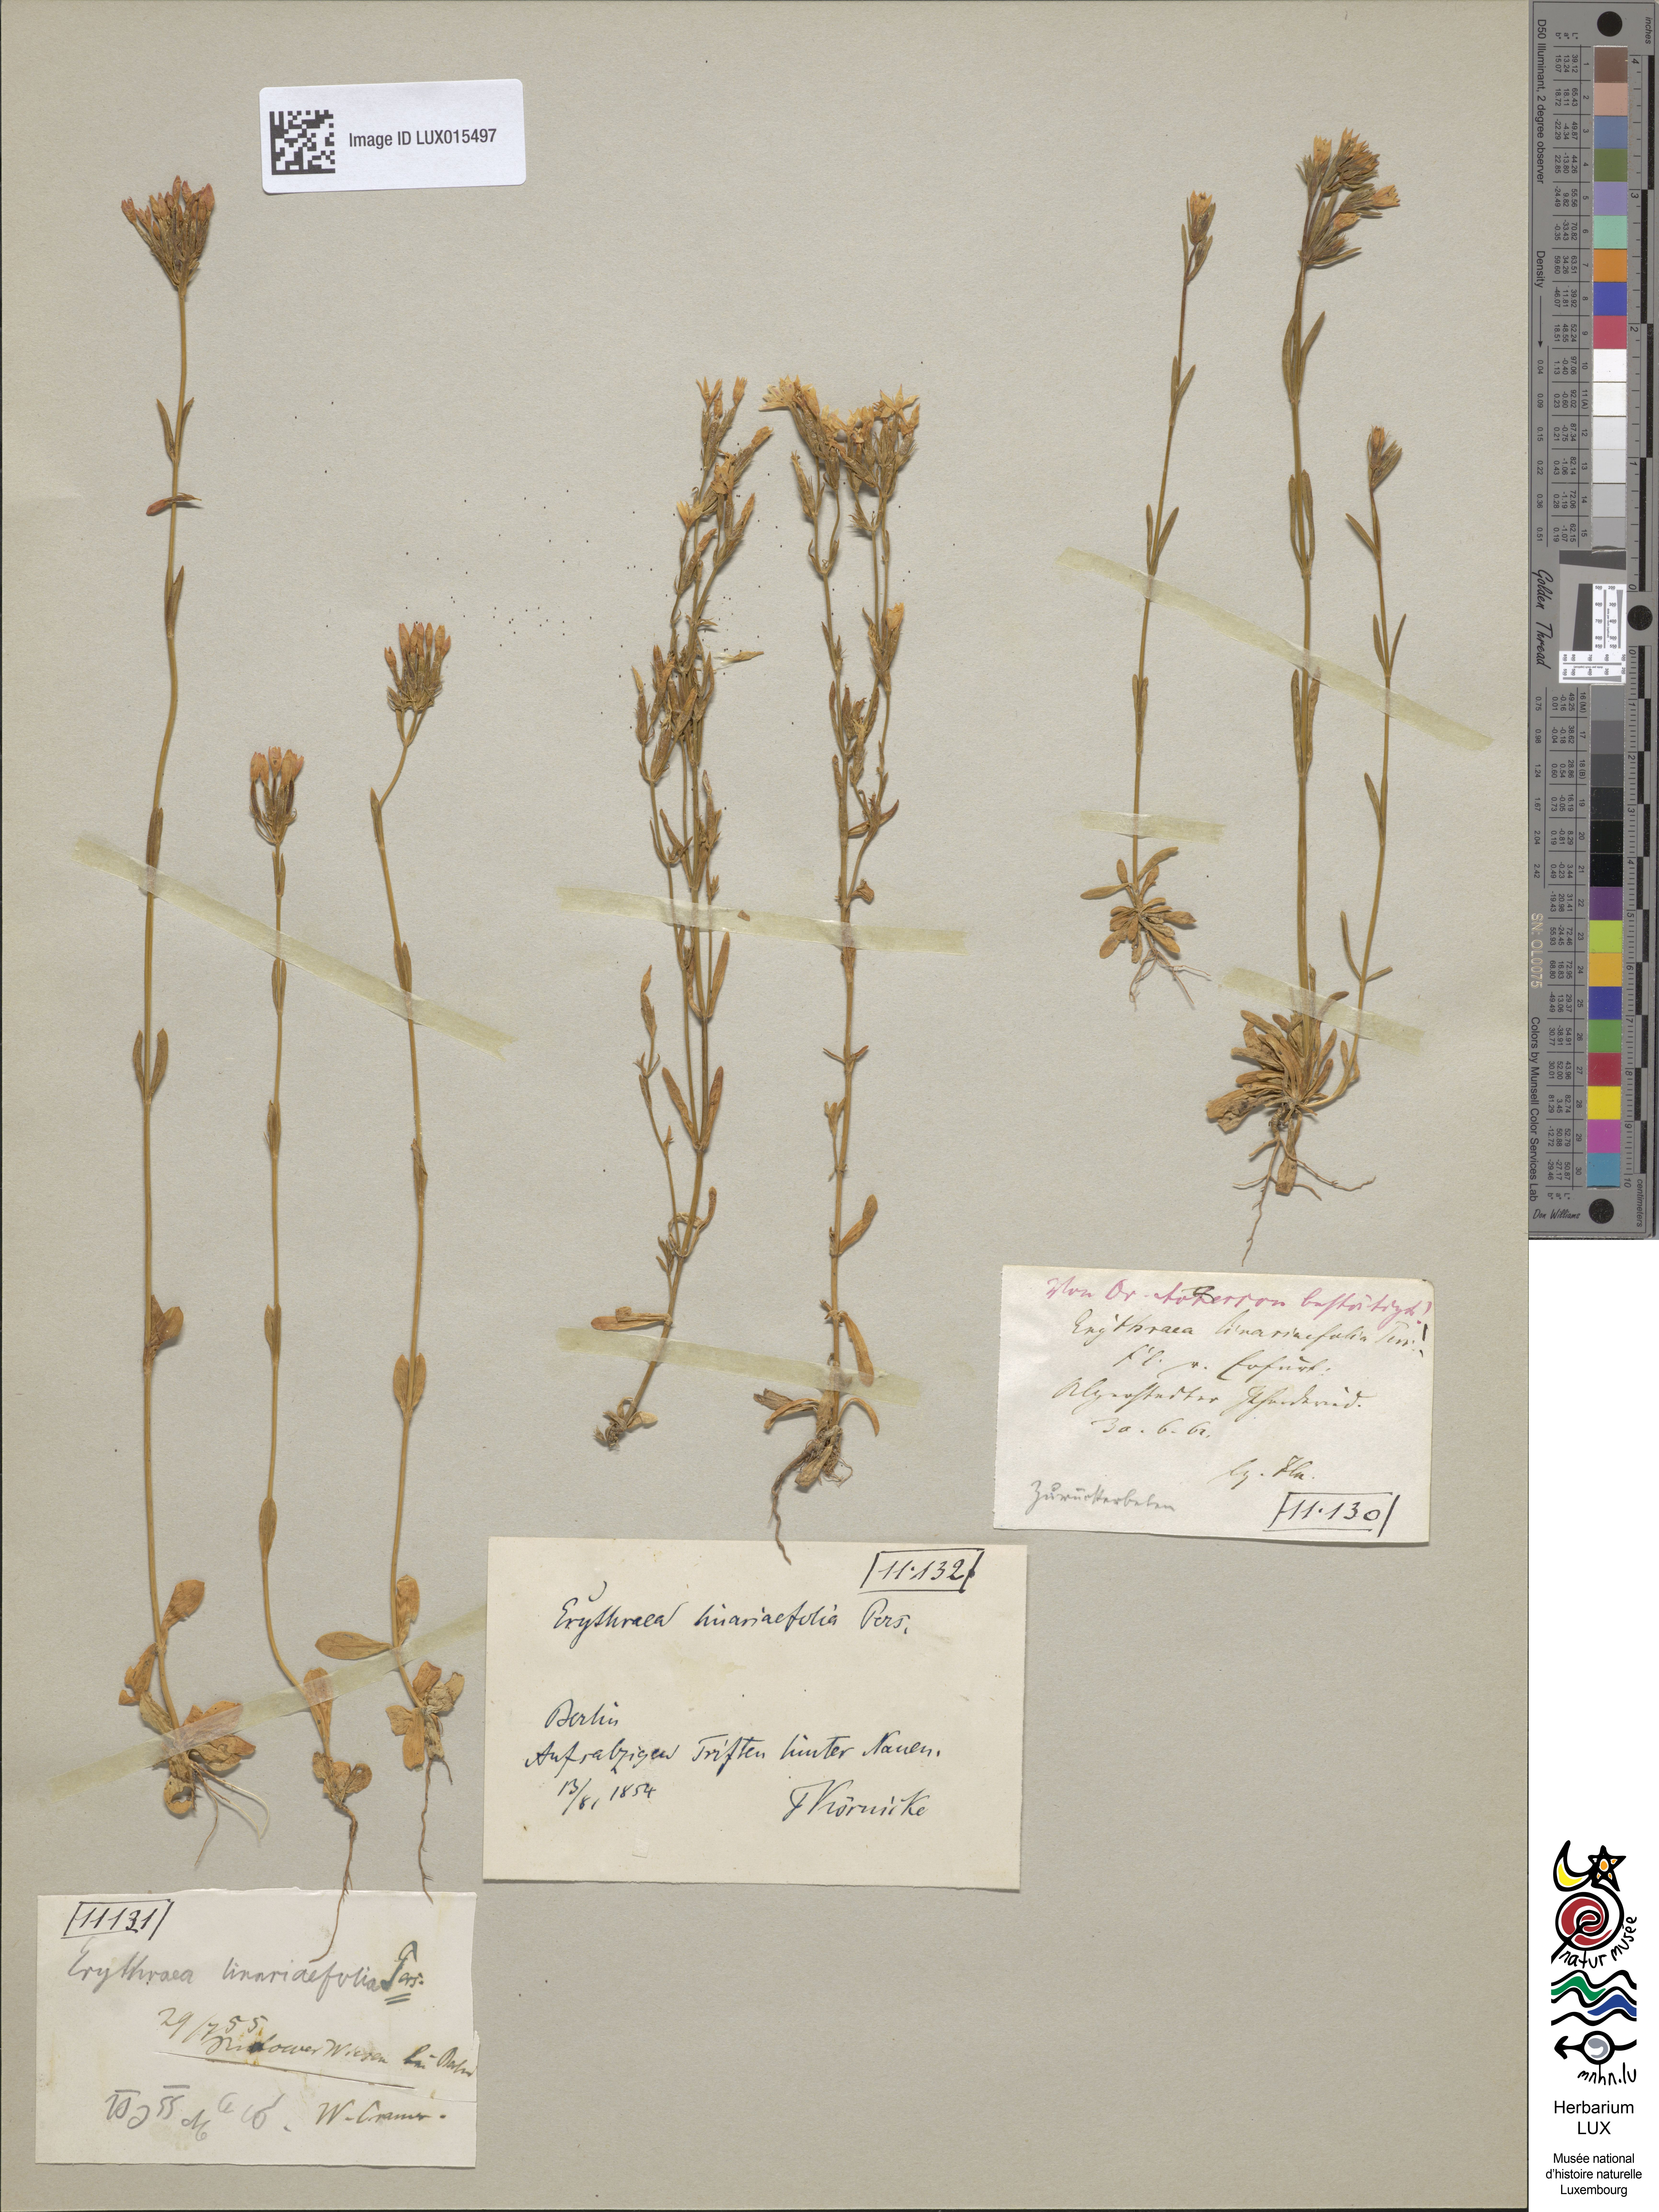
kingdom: Plantae
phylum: Tracheophyta
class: Magnoliopsida
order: Gentianales
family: Gentianaceae
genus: Centaurium
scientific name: Centaurium littorale
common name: Seaside centaury
